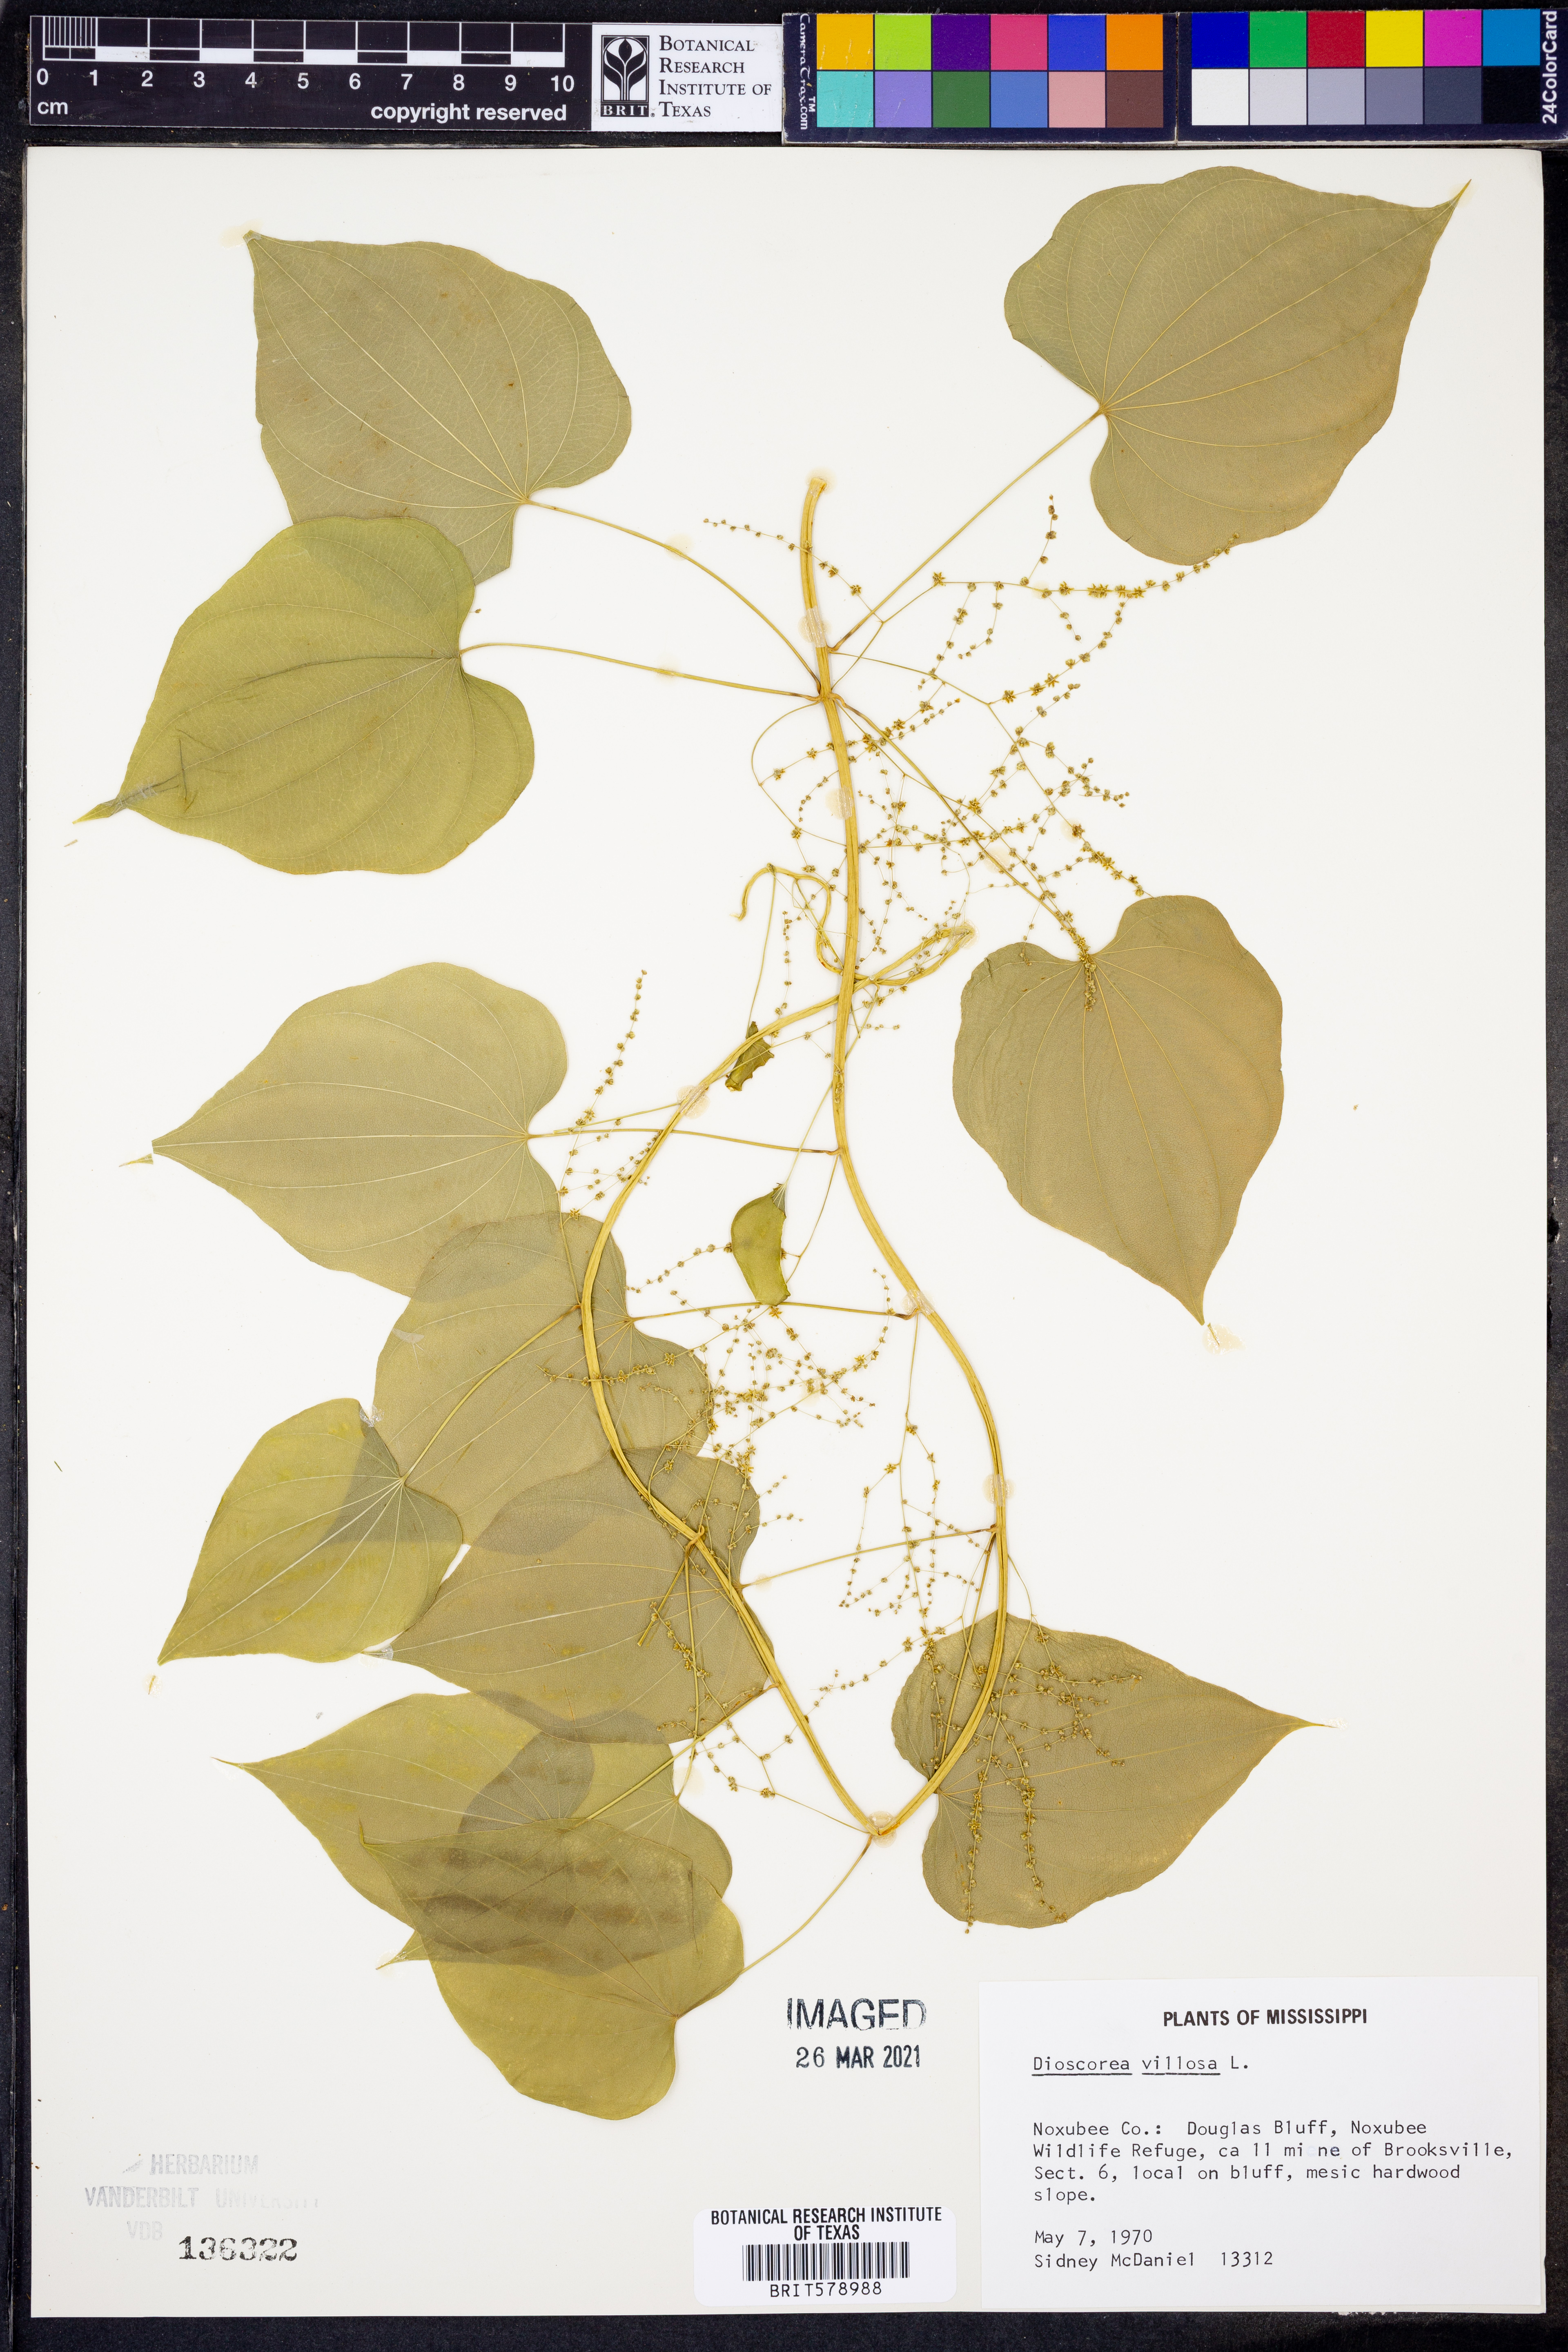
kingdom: Plantae
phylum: Tracheophyta
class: Liliopsida
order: Dioscoreales
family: Dioscoreaceae
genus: Dioscorea
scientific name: Dioscorea villosa
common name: Wild yam
